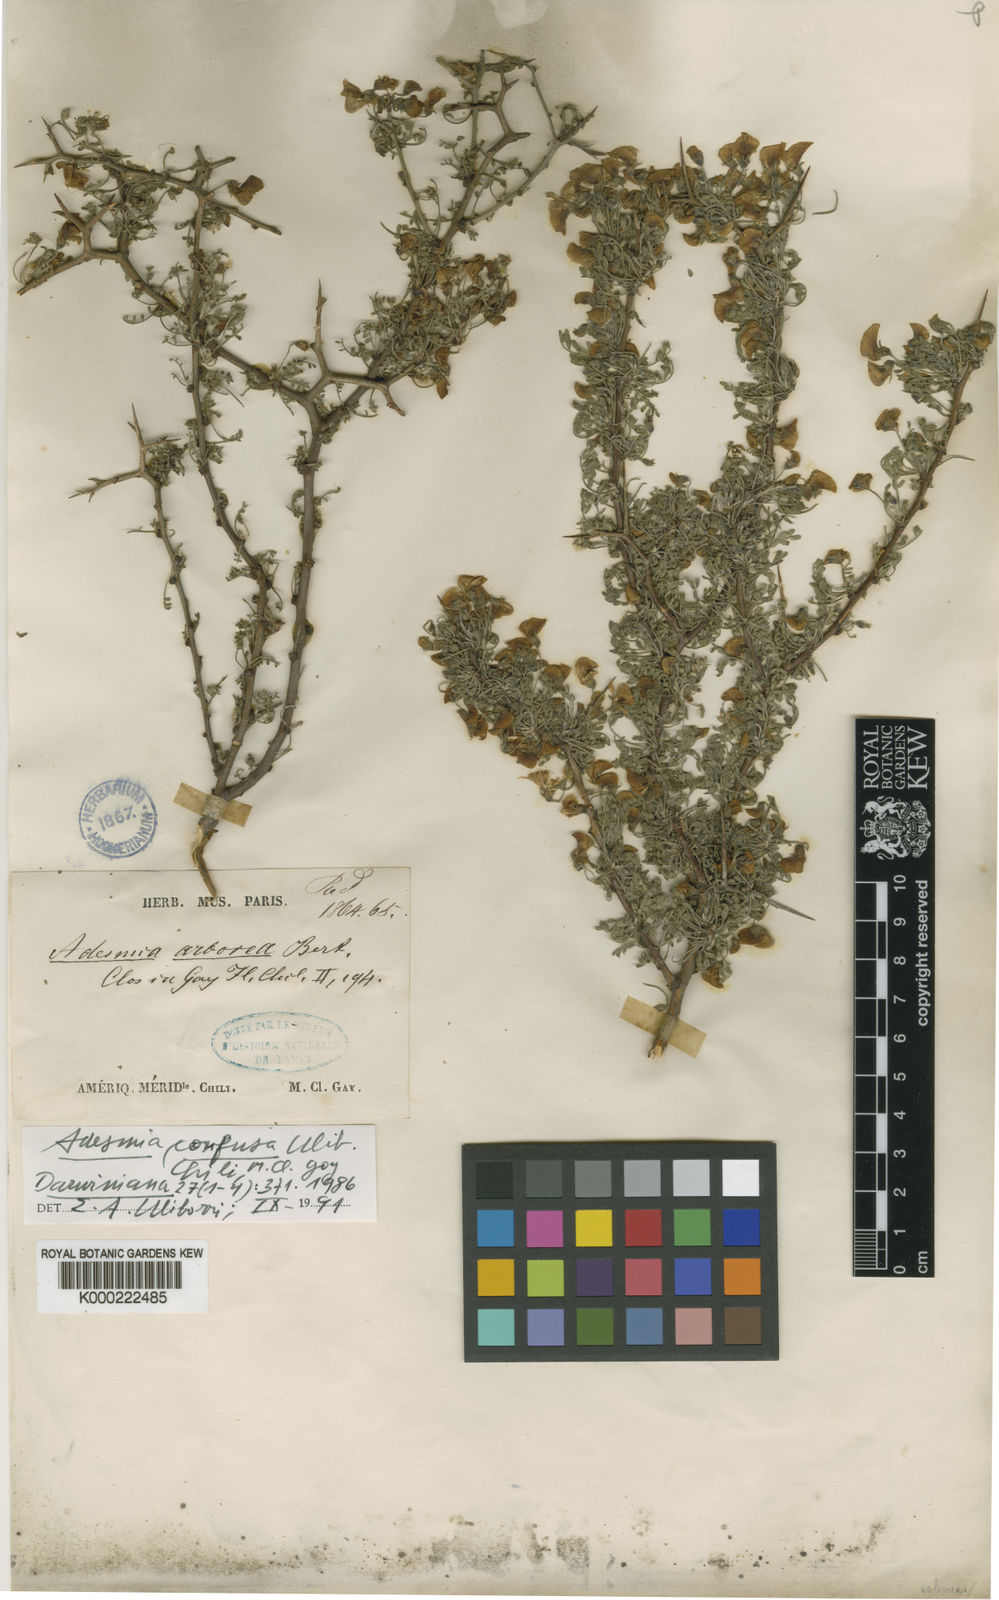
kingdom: Plantae
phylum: Tracheophyta
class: Magnoliopsida
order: Fabales
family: Fabaceae
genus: Adesmia
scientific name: Adesmia glutinosa
